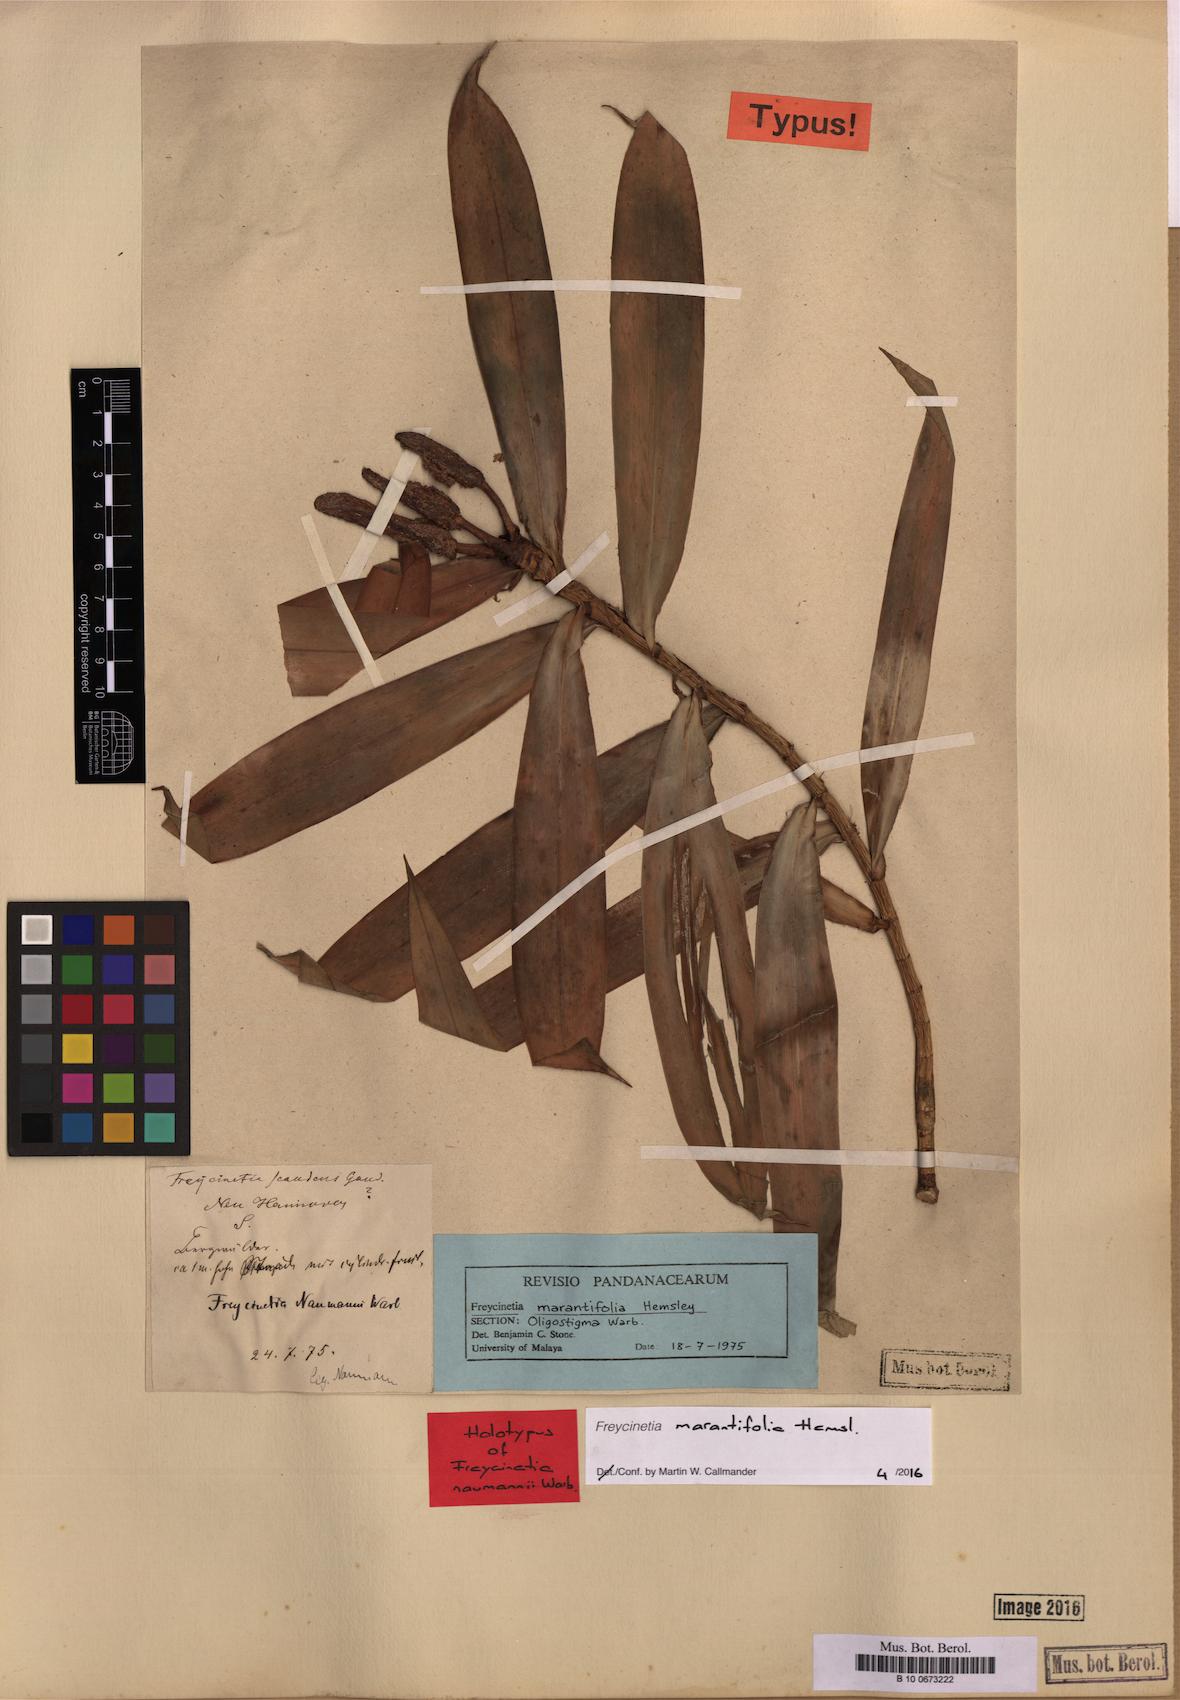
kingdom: Plantae
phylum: Tracheophyta
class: Liliopsida
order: Pandanales
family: Pandanaceae
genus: Freycinetia
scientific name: Freycinetia marantifolia
